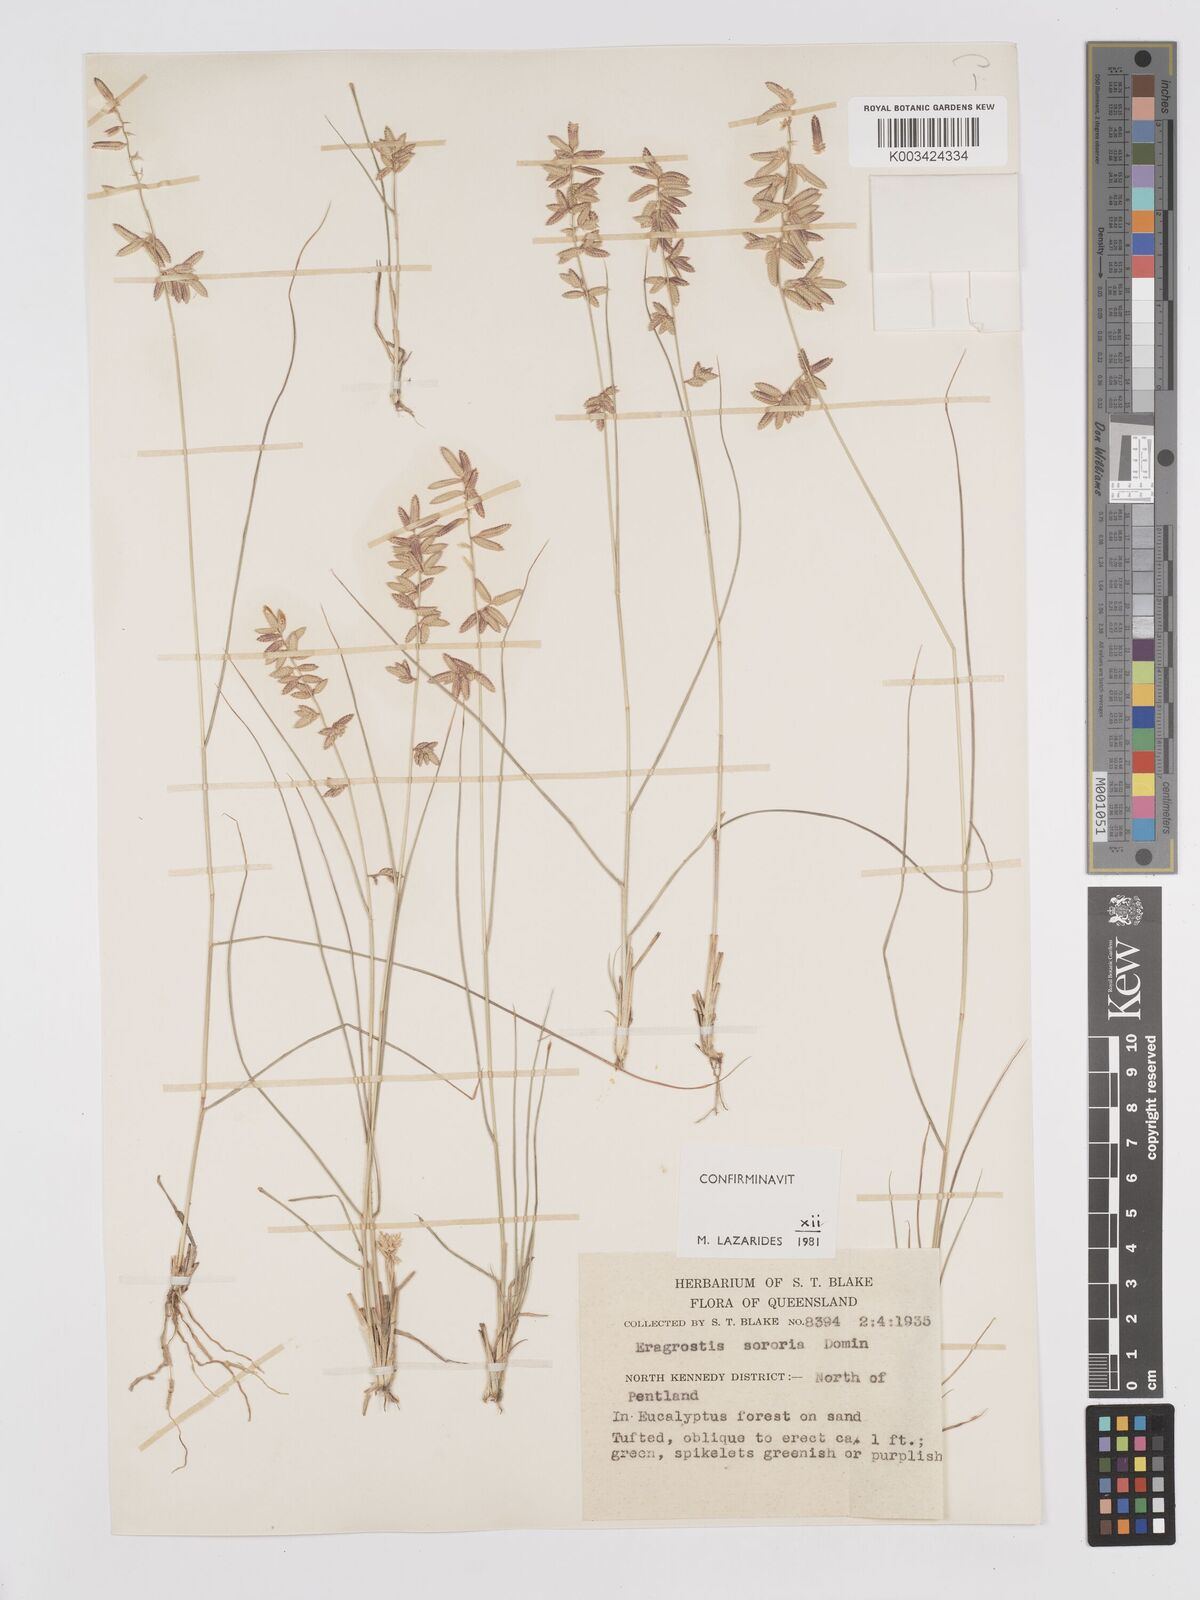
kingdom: Plantae
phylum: Tracheophyta
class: Liliopsida
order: Poales
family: Poaceae
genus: Eragrostis
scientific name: Eragrostis sororia
